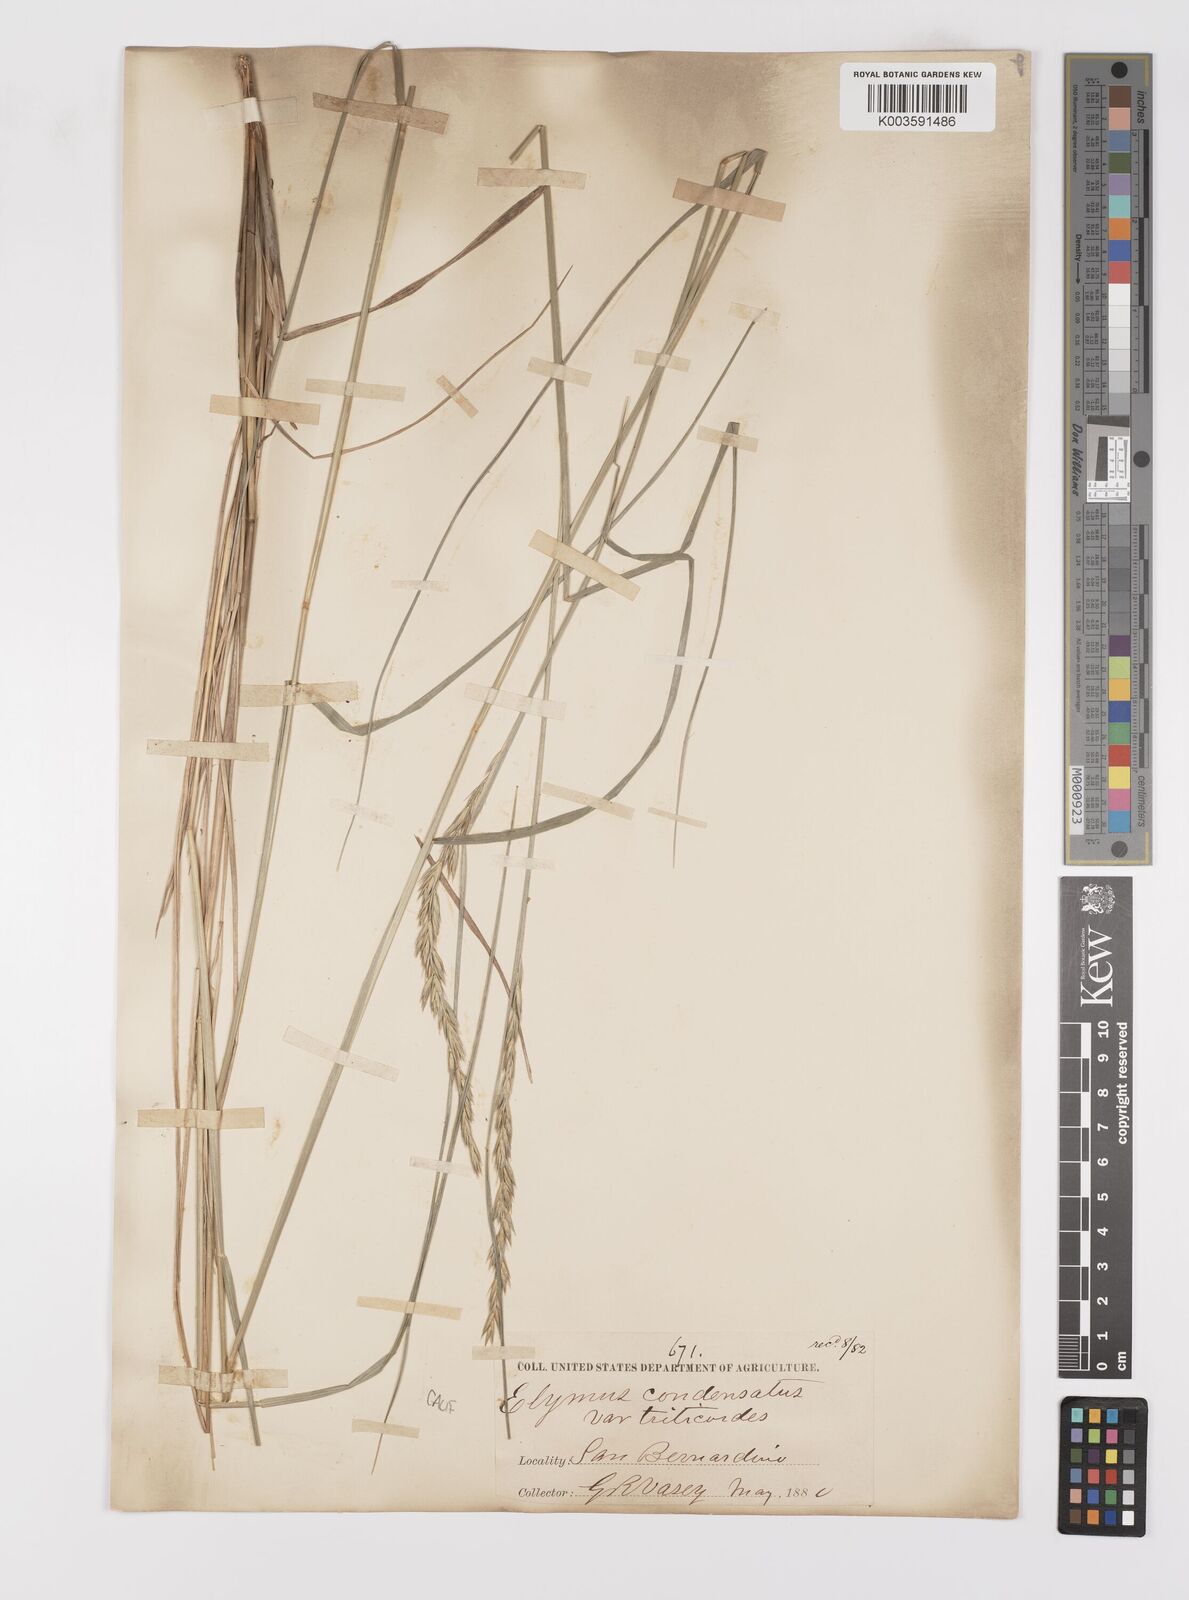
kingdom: Plantae
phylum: Tracheophyta
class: Liliopsida
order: Poales
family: Poaceae
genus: Leymus
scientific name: Leymus triticoides
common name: Beardless wild rye
